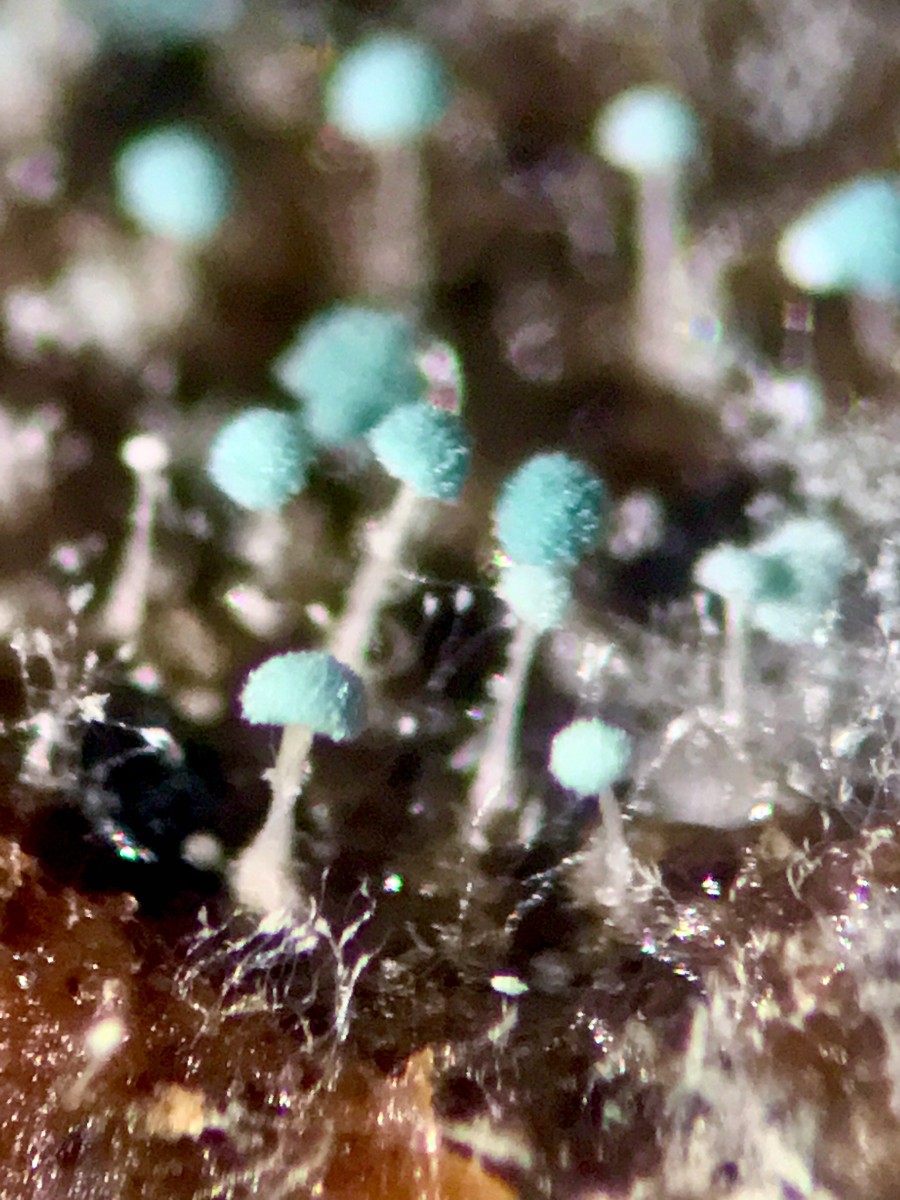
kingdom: Fungi
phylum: Ascomycota
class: Eurotiomycetes
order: Eurotiales
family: Aspergillaceae
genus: Penicillium
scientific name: Penicillium coprophilum
